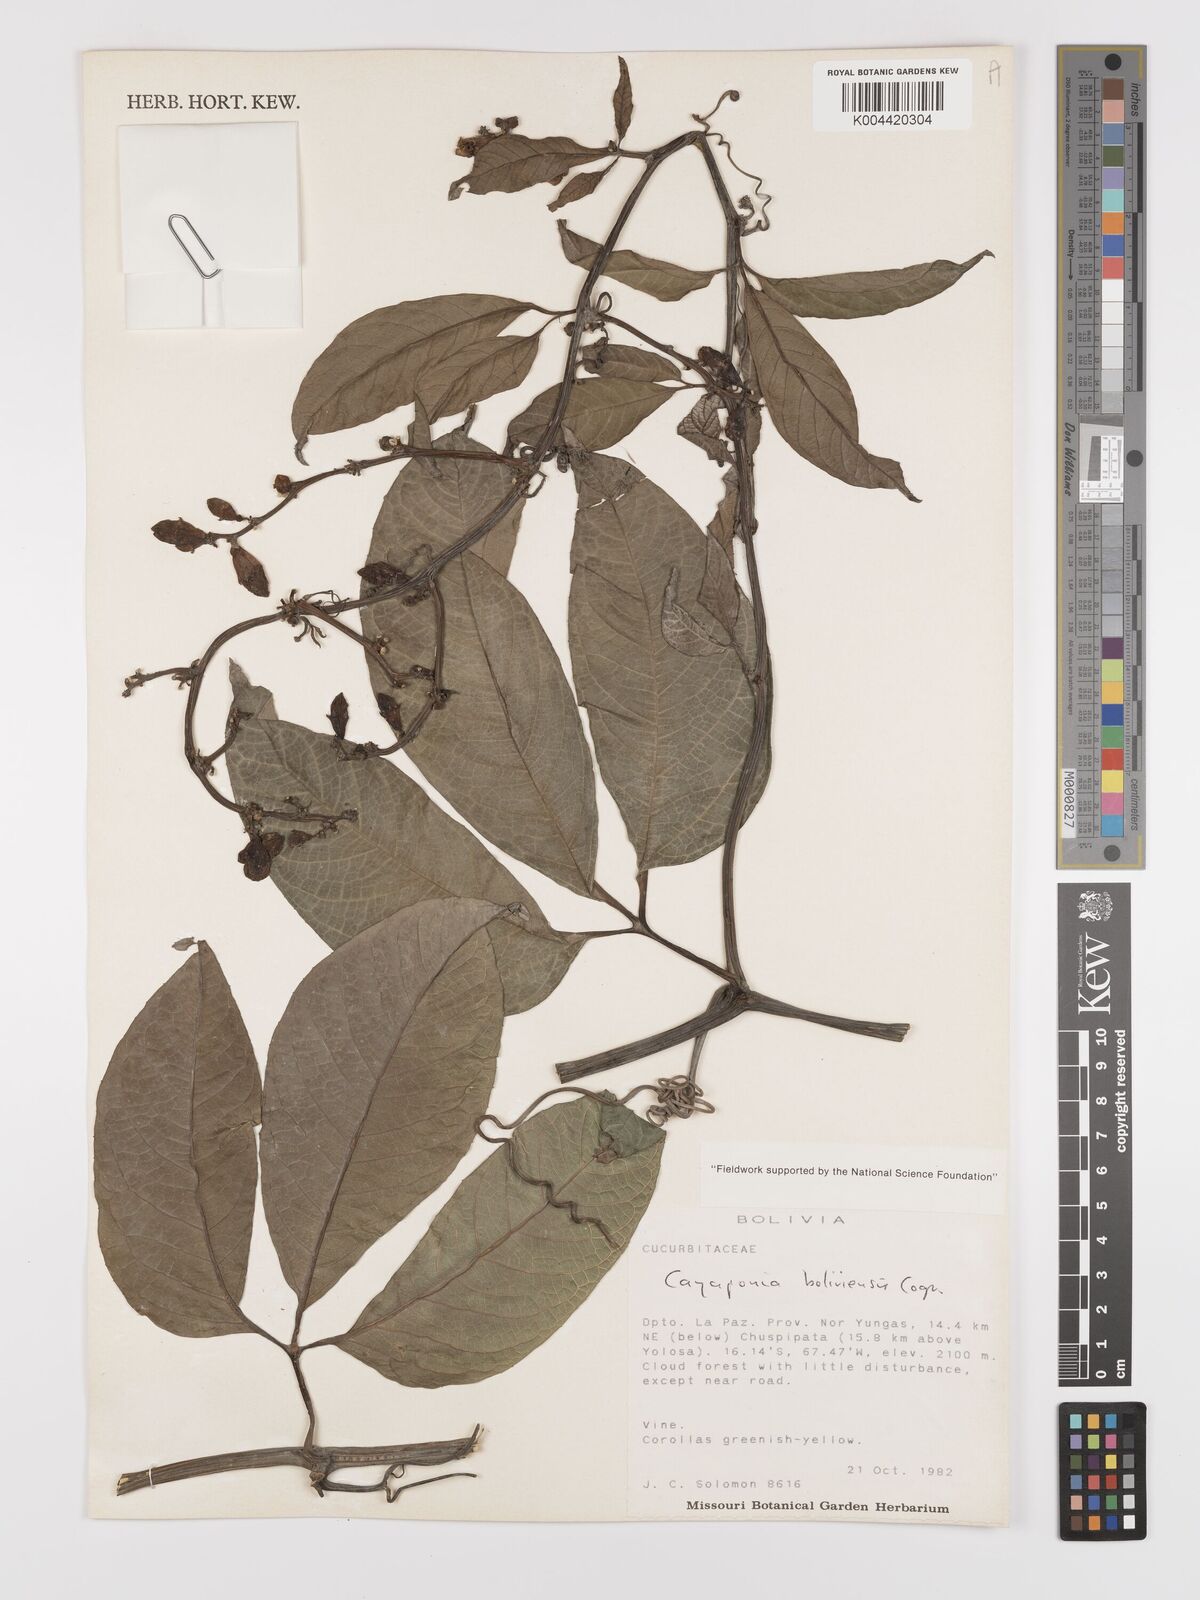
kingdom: Plantae
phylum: Tracheophyta
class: Magnoliopsida
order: Cucurbitales
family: Cucurbitaceae
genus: Cayaponia
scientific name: Cayaponia boliviensis
